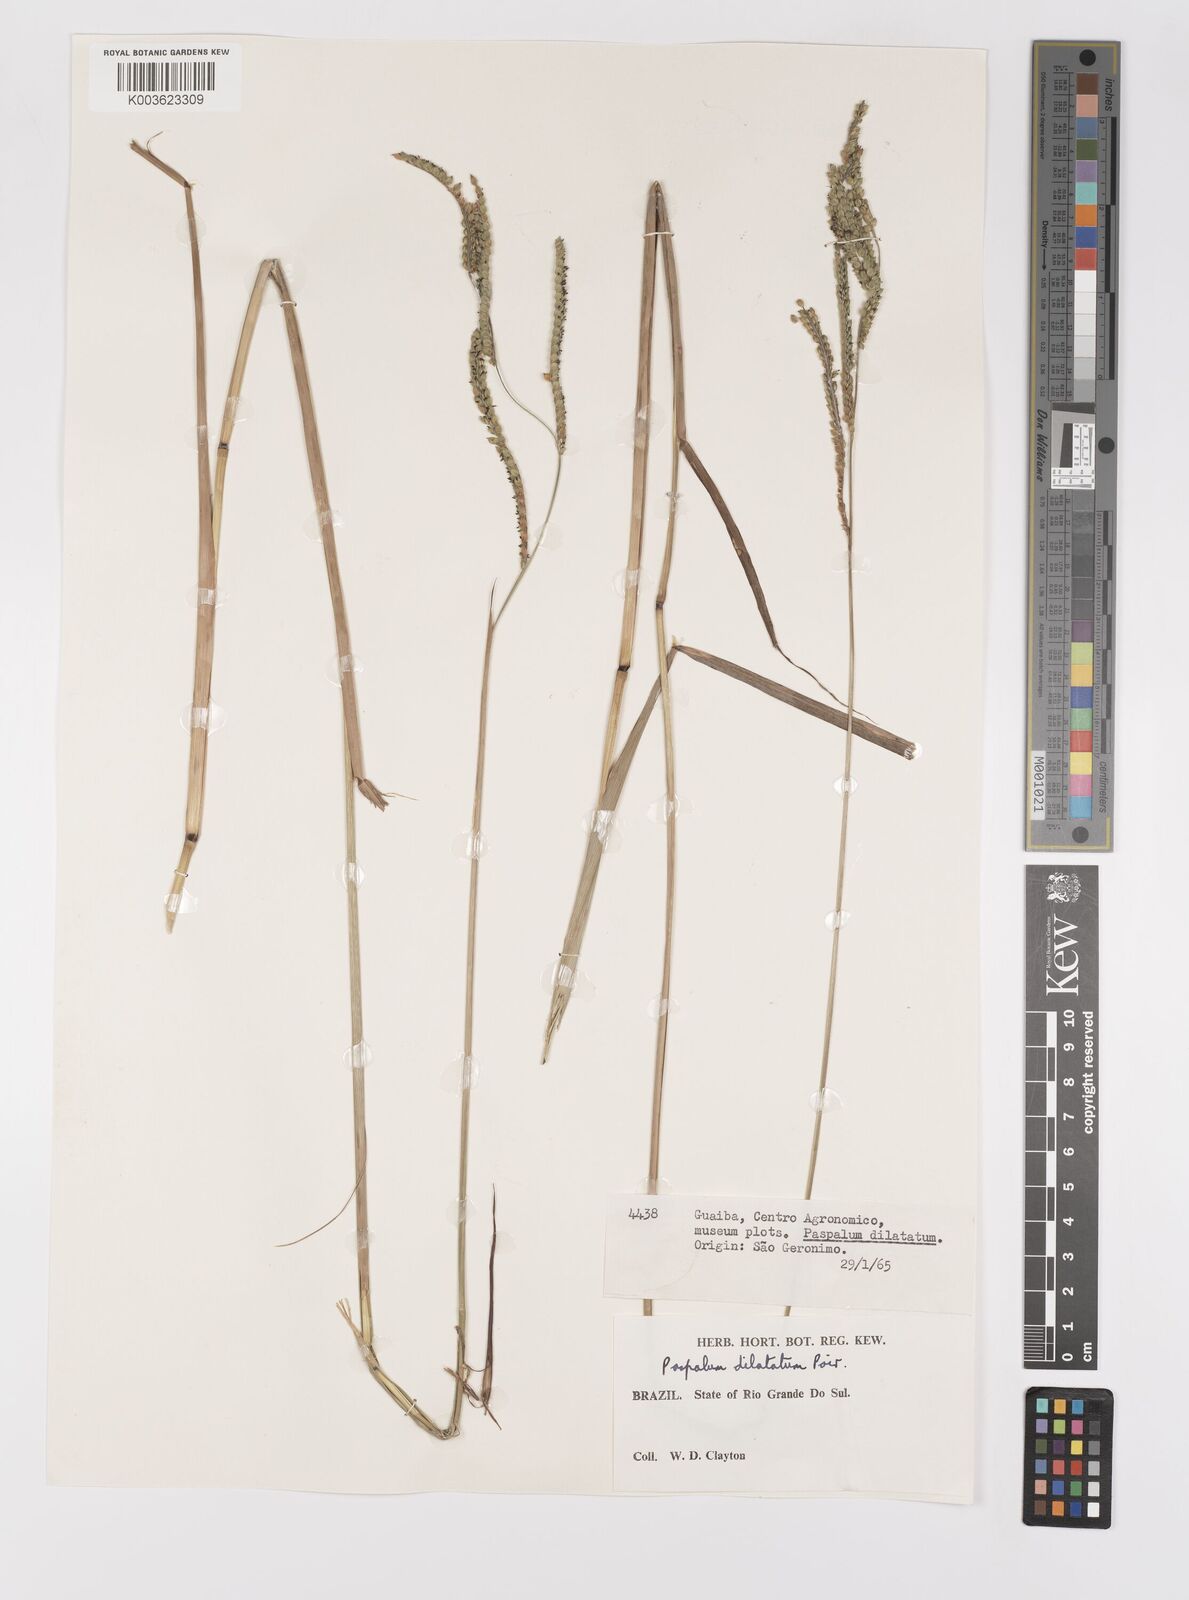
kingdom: Plantae
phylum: Tracheophyta
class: Liliopsida
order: Poales
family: Poaceae
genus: Paspalum
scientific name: Paspalum dilatatum
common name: Dallisgrass
